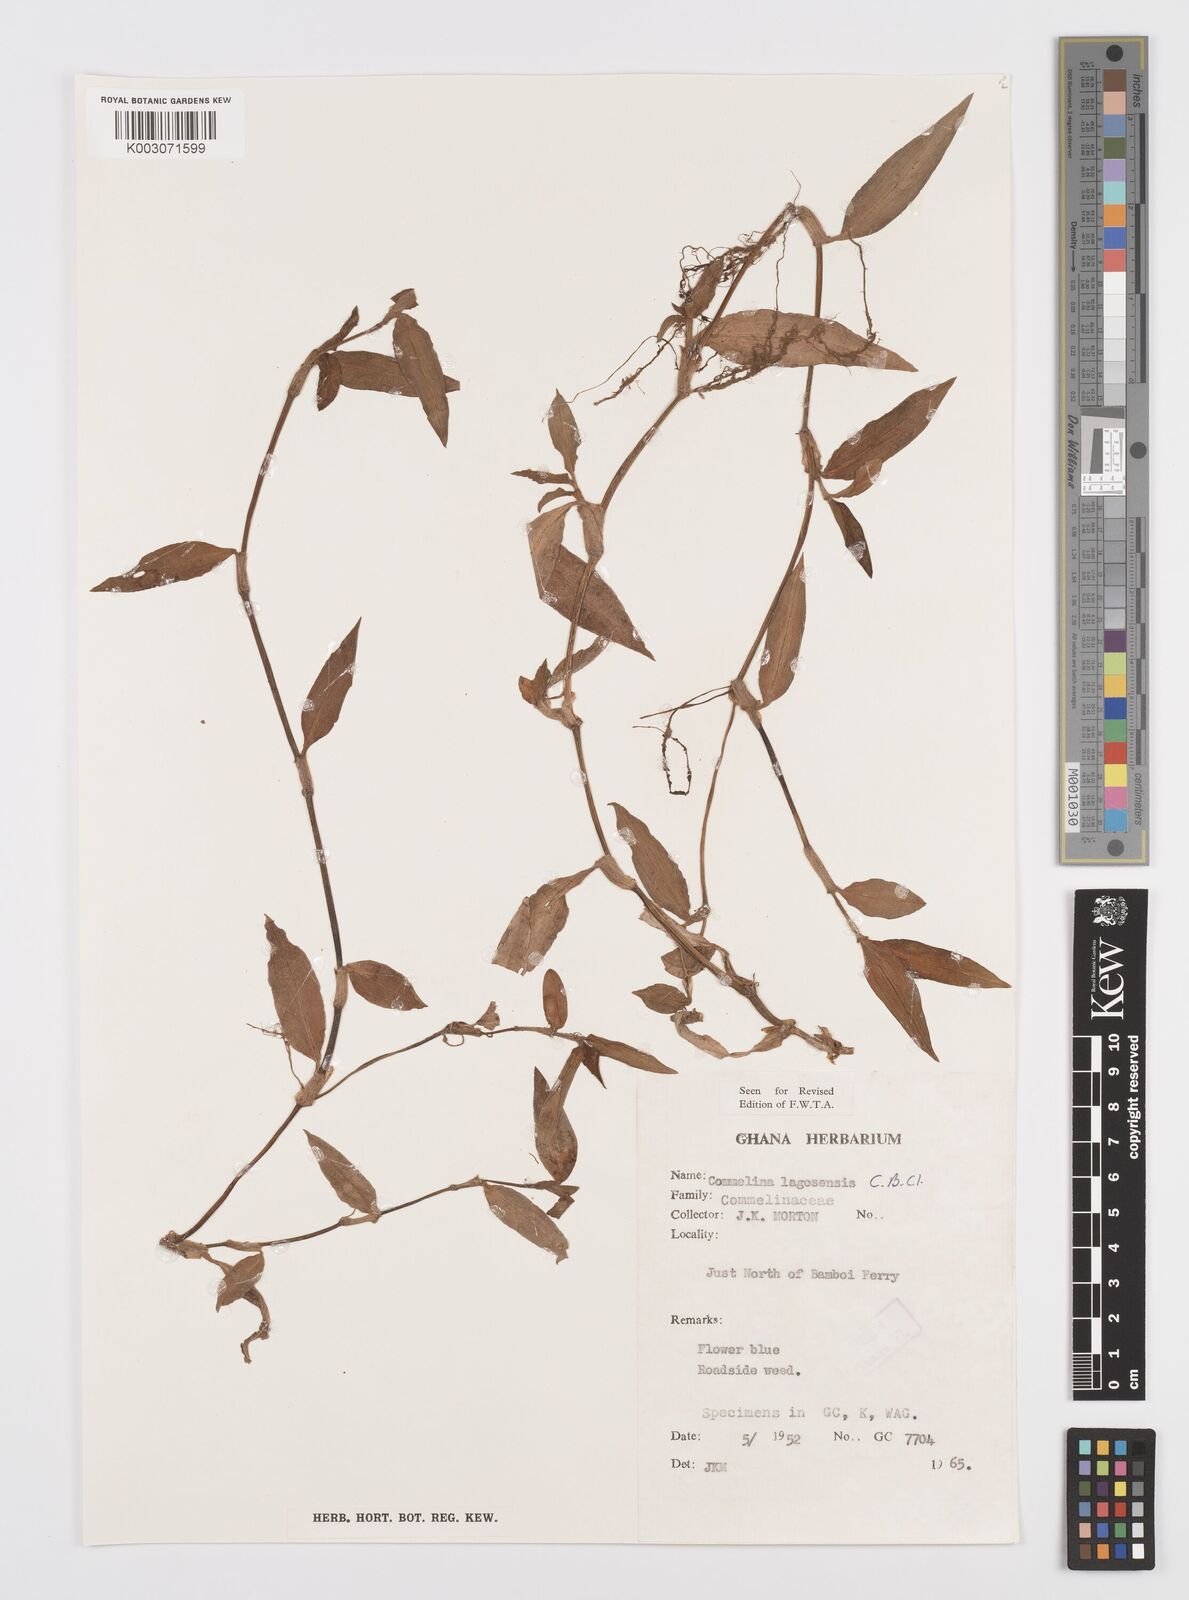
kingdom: Plantae
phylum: Tracheophyta
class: Liliopsida
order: Commelinales
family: Commelinaceae
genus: Commelina
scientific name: Commelina bracteosa
